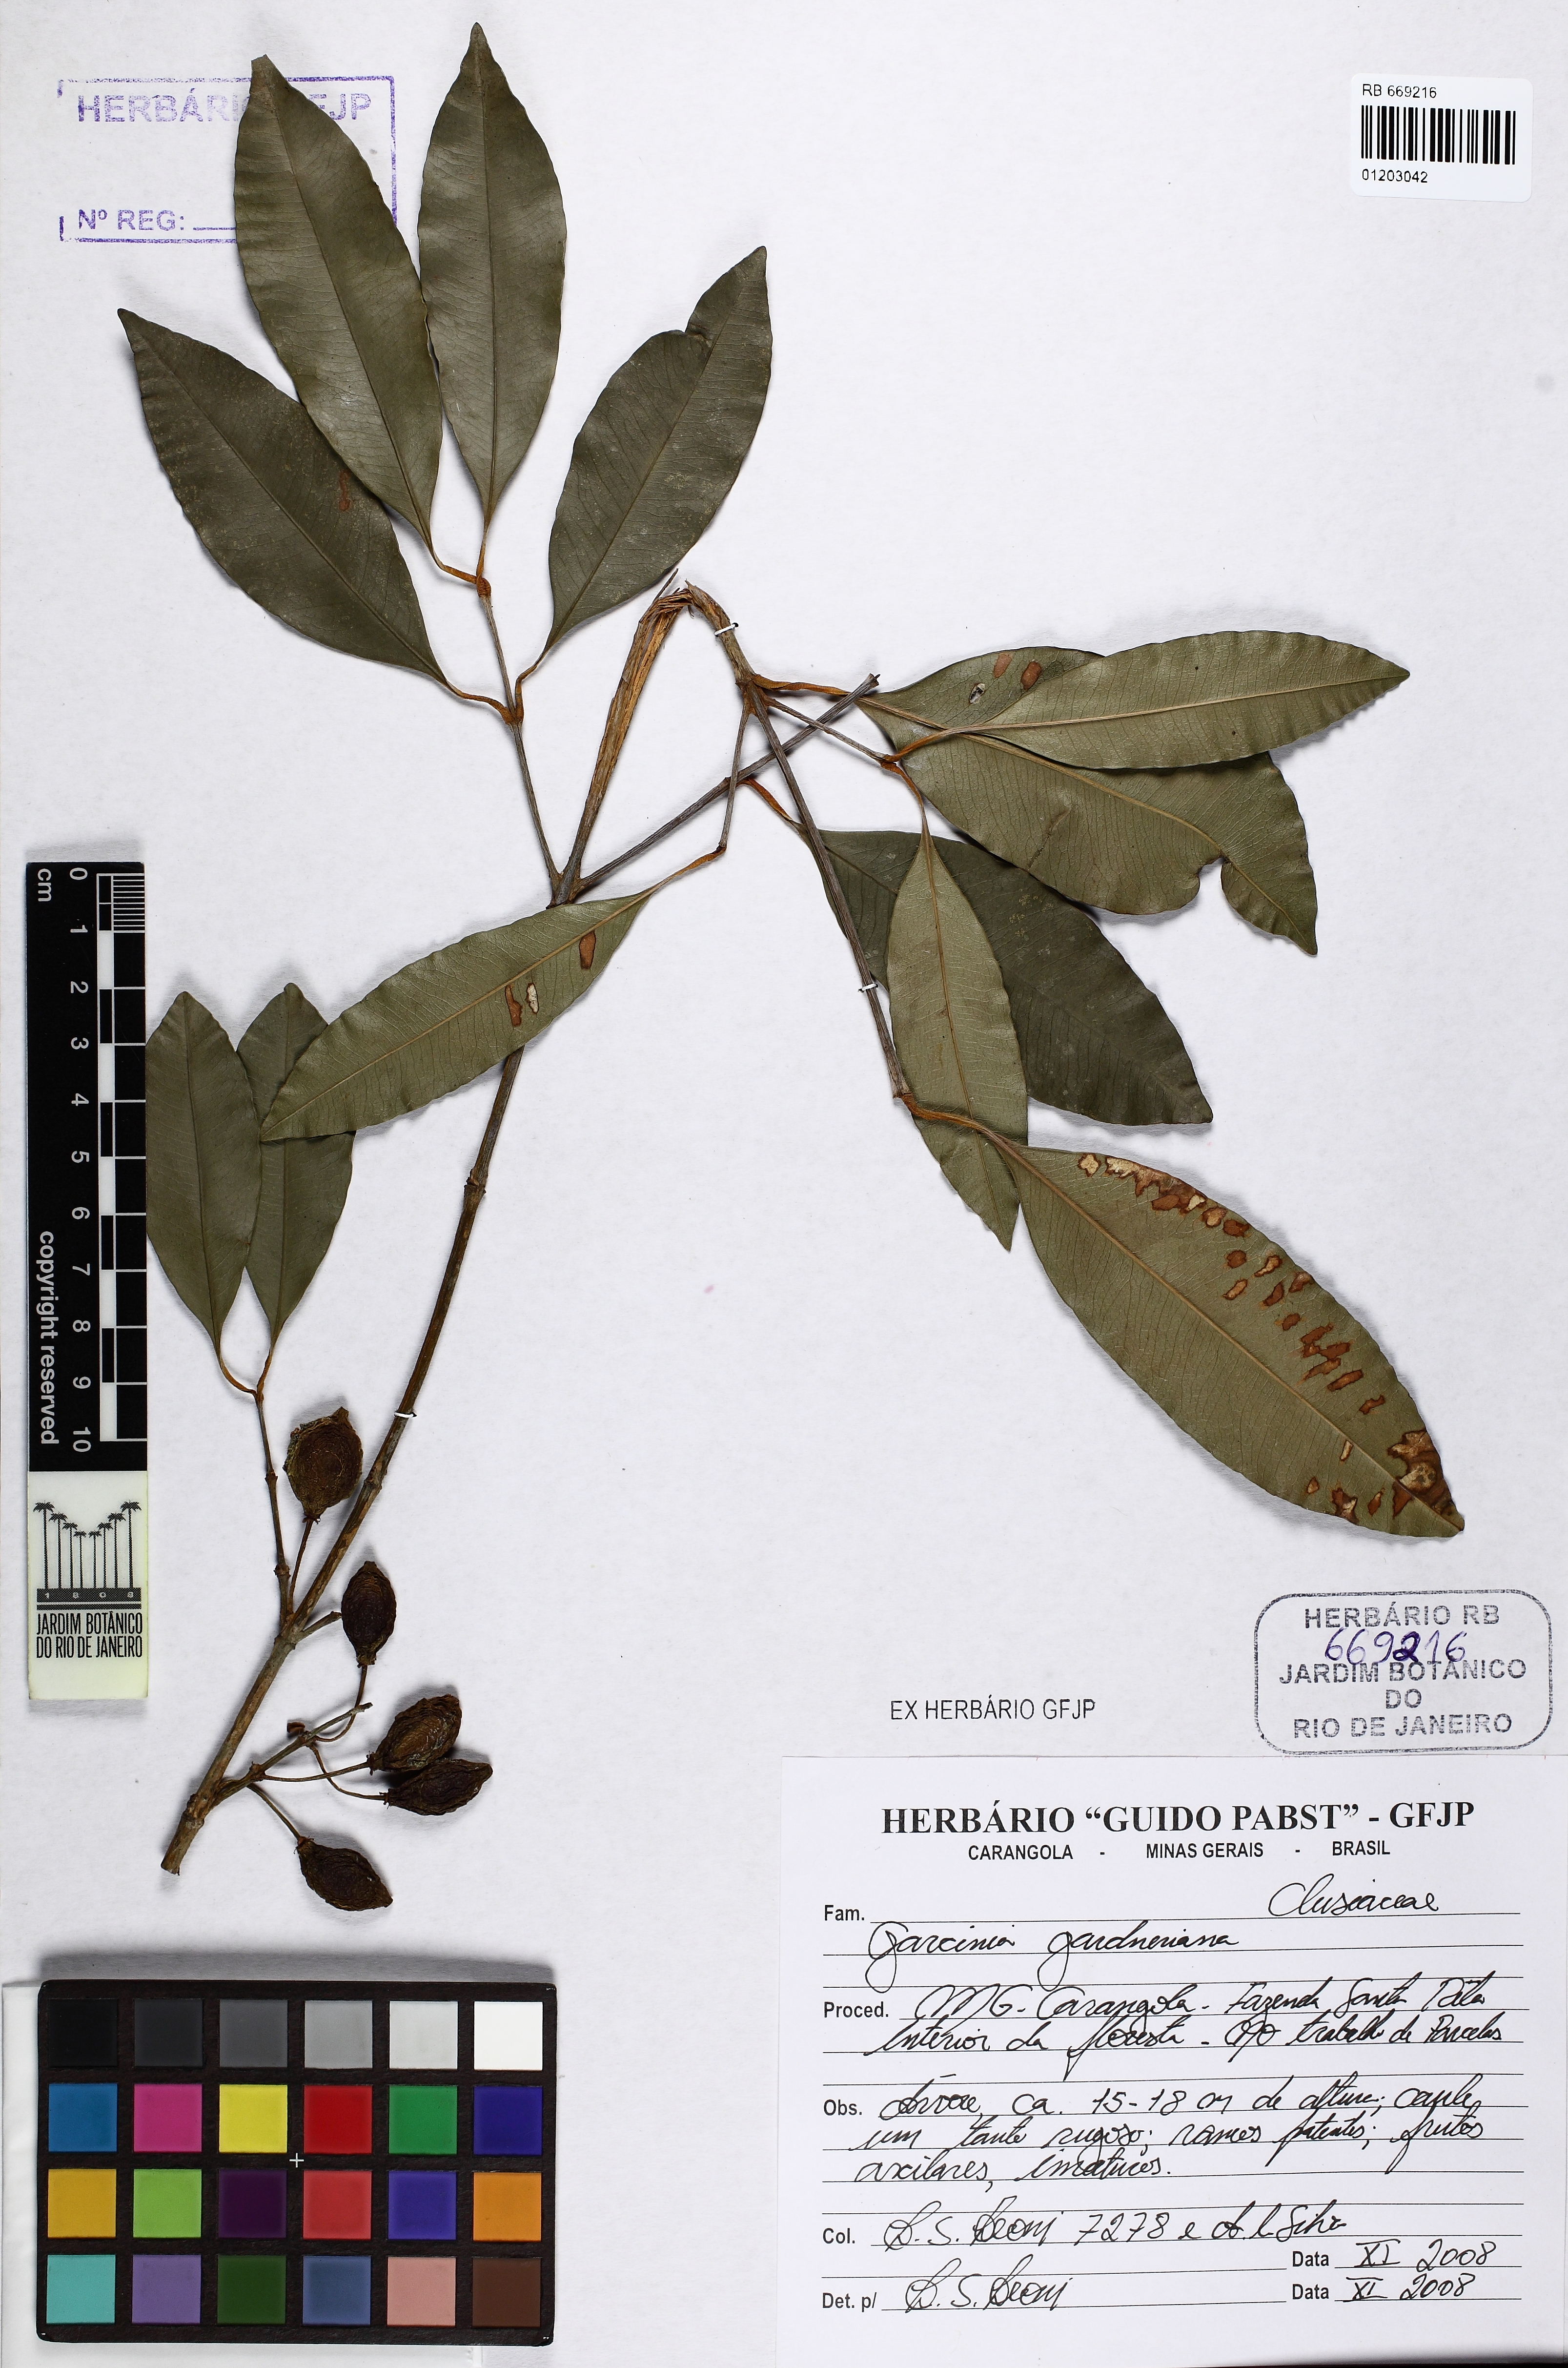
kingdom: Plantae
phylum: Tracheophyta
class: Magnoliopsida
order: Malpighiales
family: Clusiaceae
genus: Garcinia
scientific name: Garcinia gardneriana
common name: Achacha
